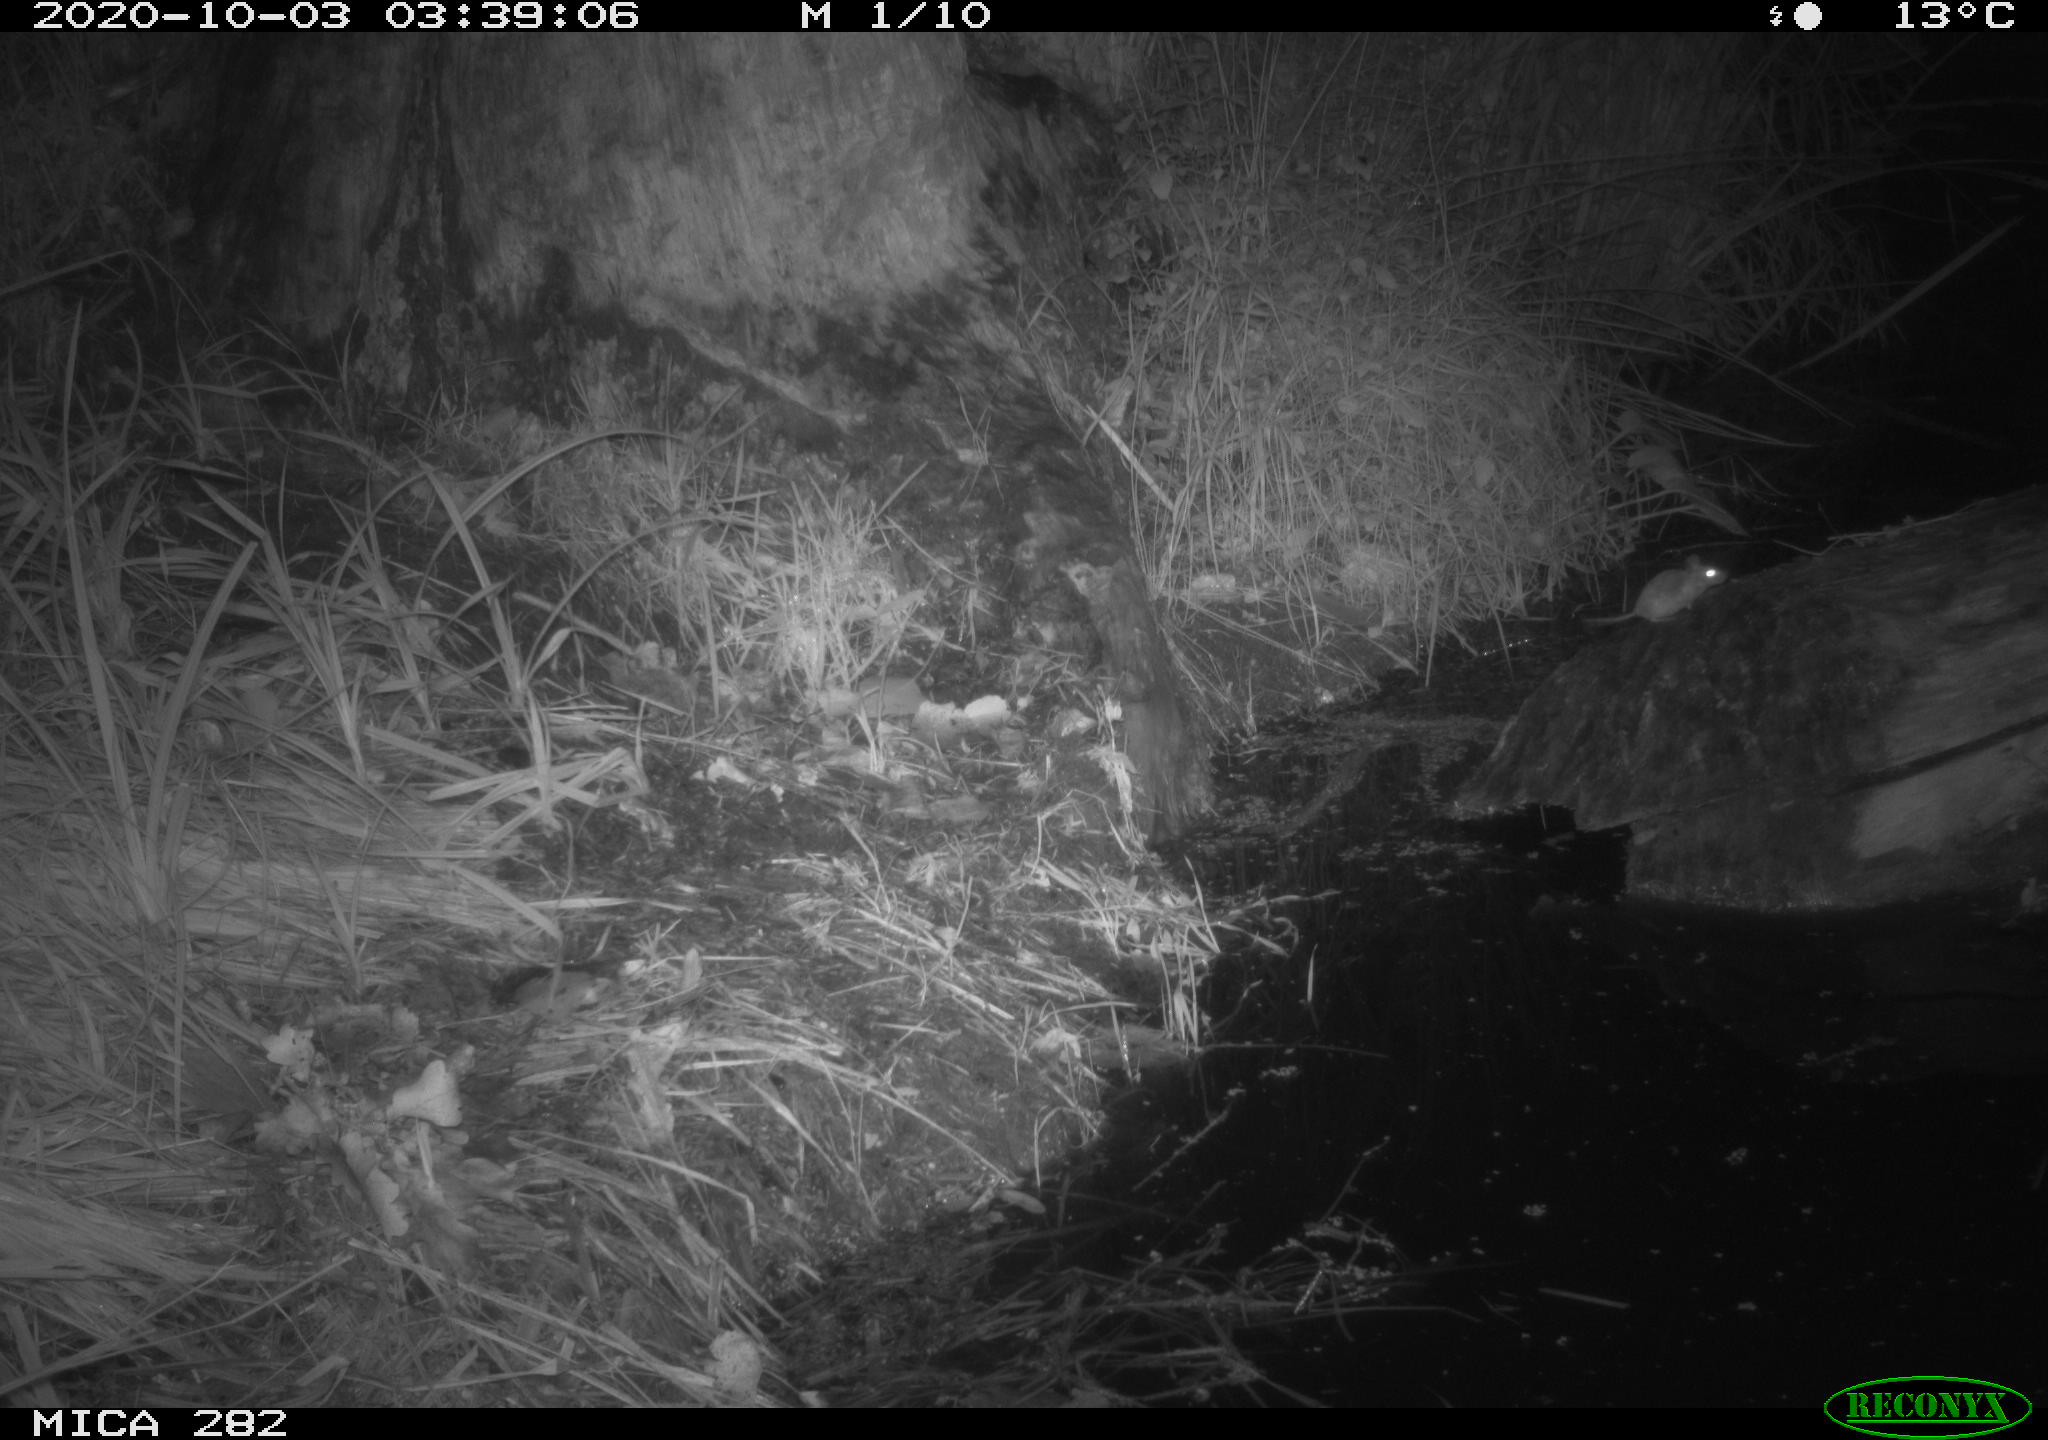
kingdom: Animalia
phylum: Chordata
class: Mammalia
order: Soricomorpha
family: Soricidae
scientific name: Soricidae
